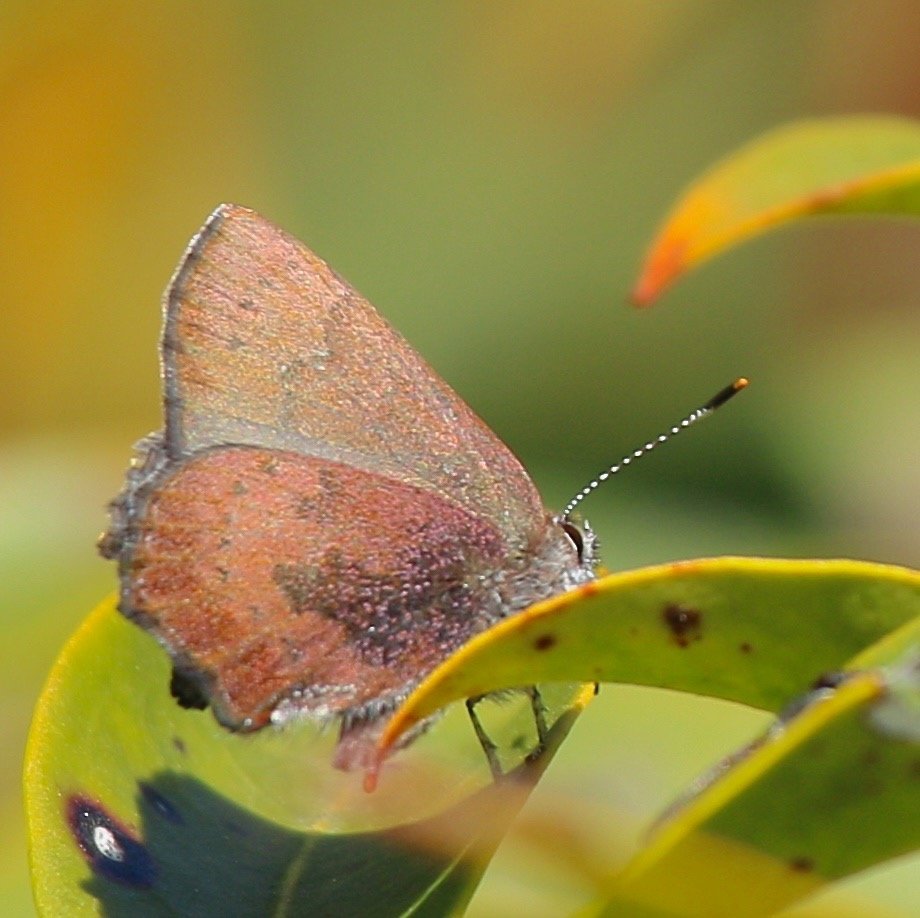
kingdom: Animalia
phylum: Arthropoda
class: Insecta
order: Lepidoptera
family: Lycaenidae
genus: Incisalia
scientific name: Incisalia irioides
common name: Brown Elfin
